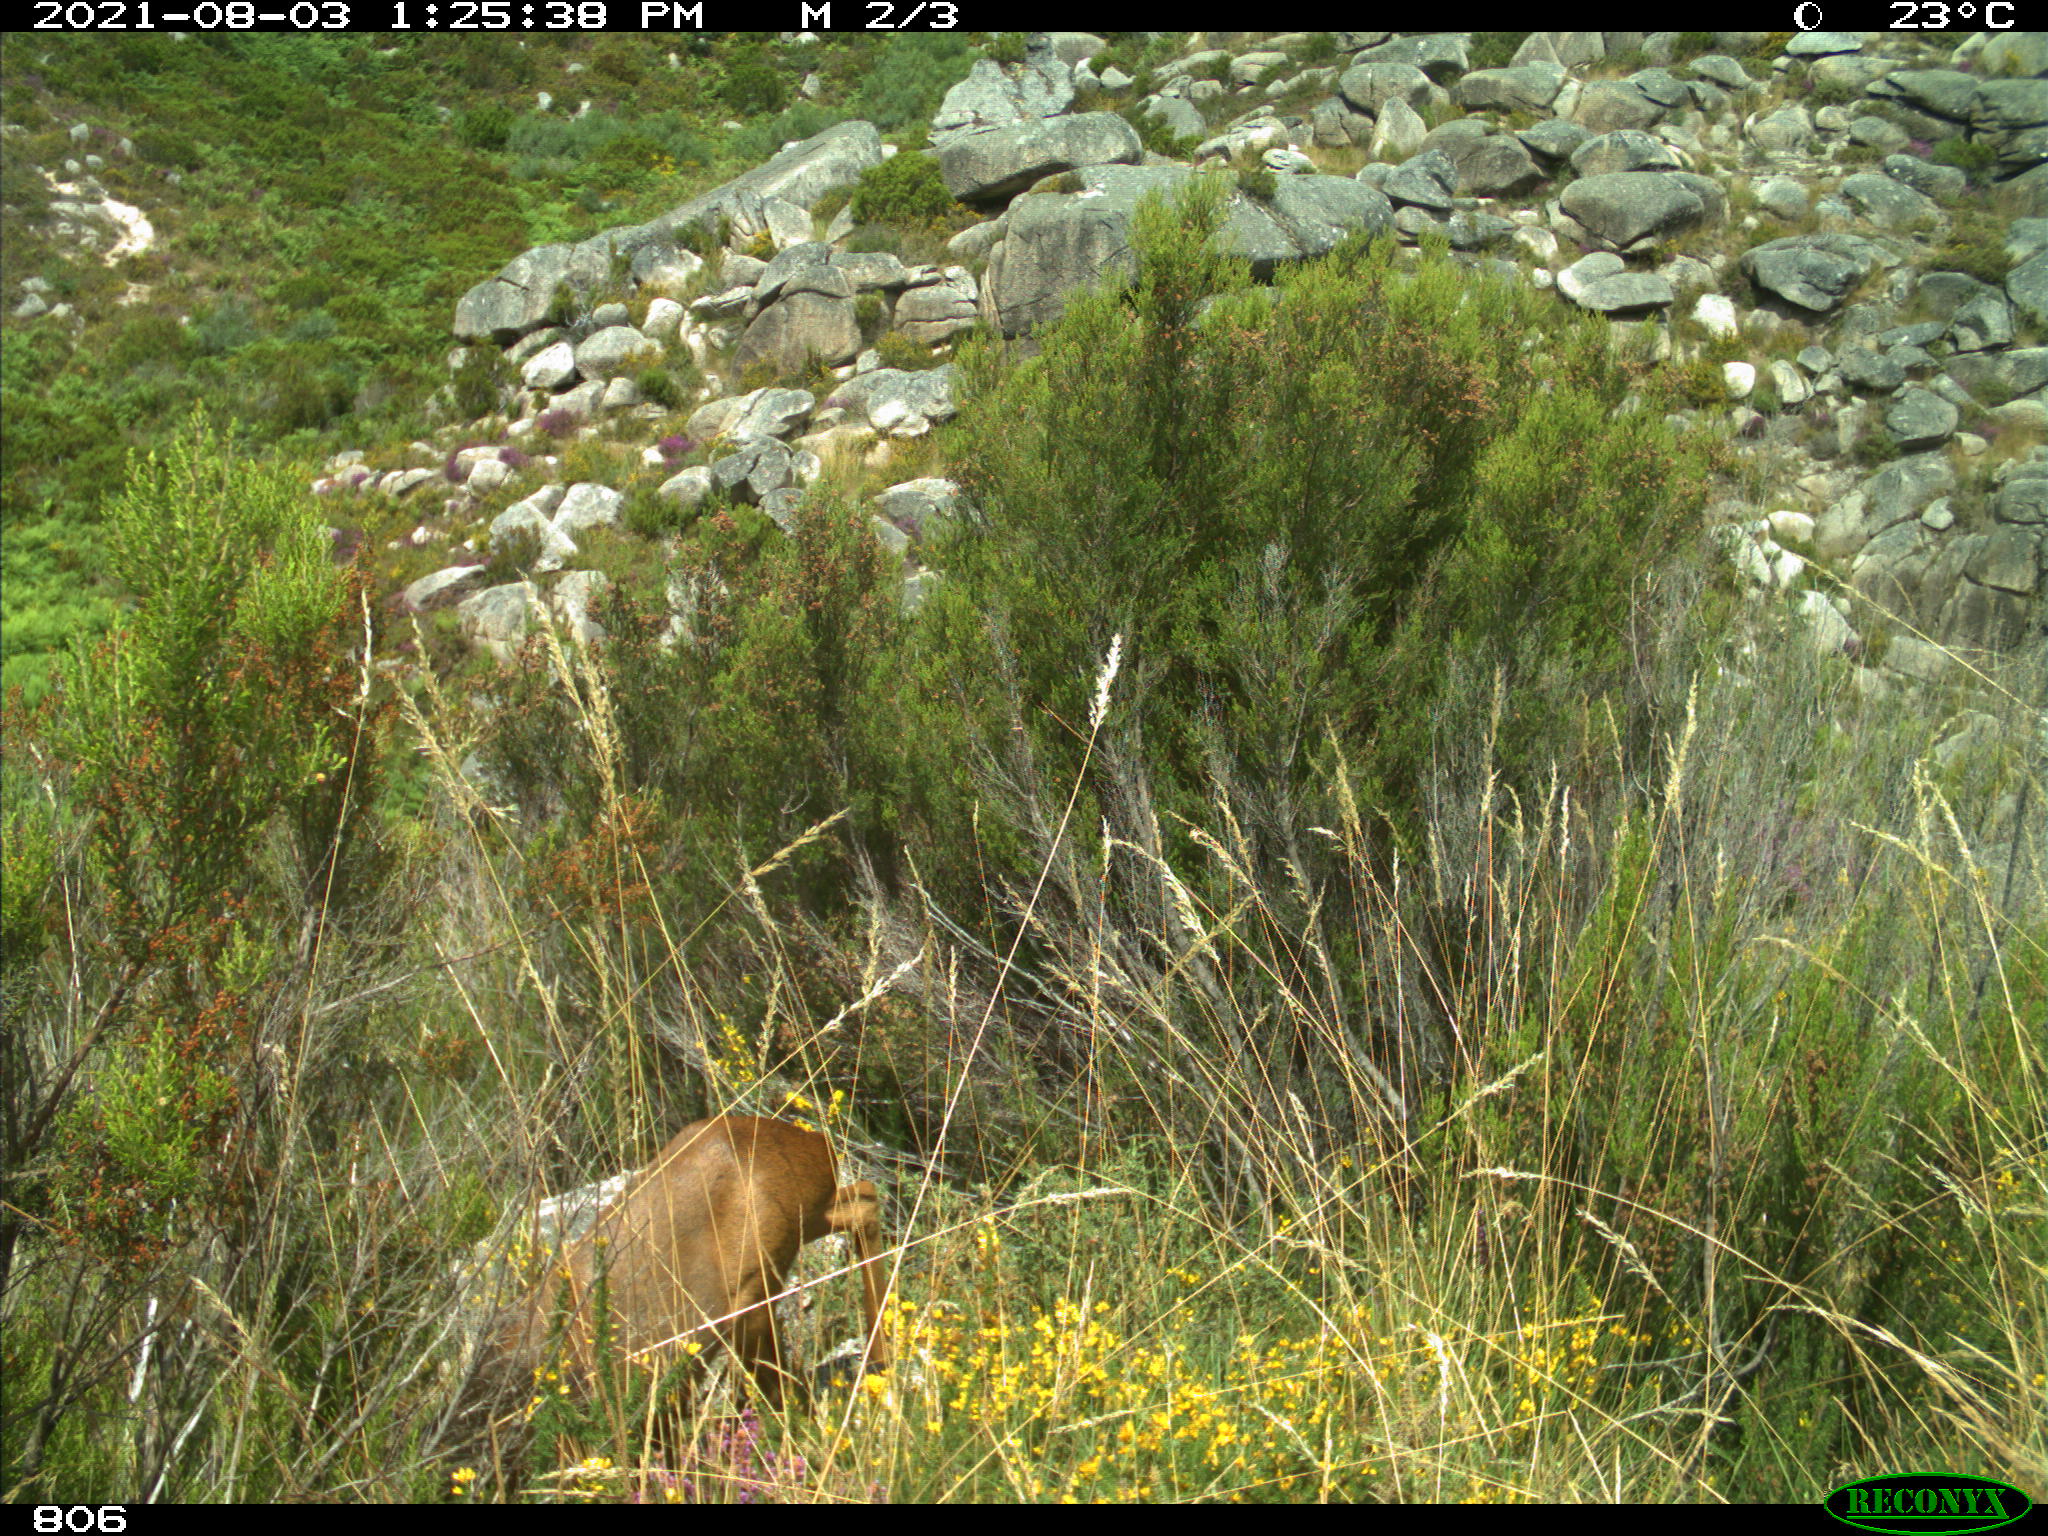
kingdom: Animalia
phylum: Chordata
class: Mammalia
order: Artiodactyla
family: Cervidae
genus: Capreolus
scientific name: Capreolus capreolus
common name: Western roe deer
